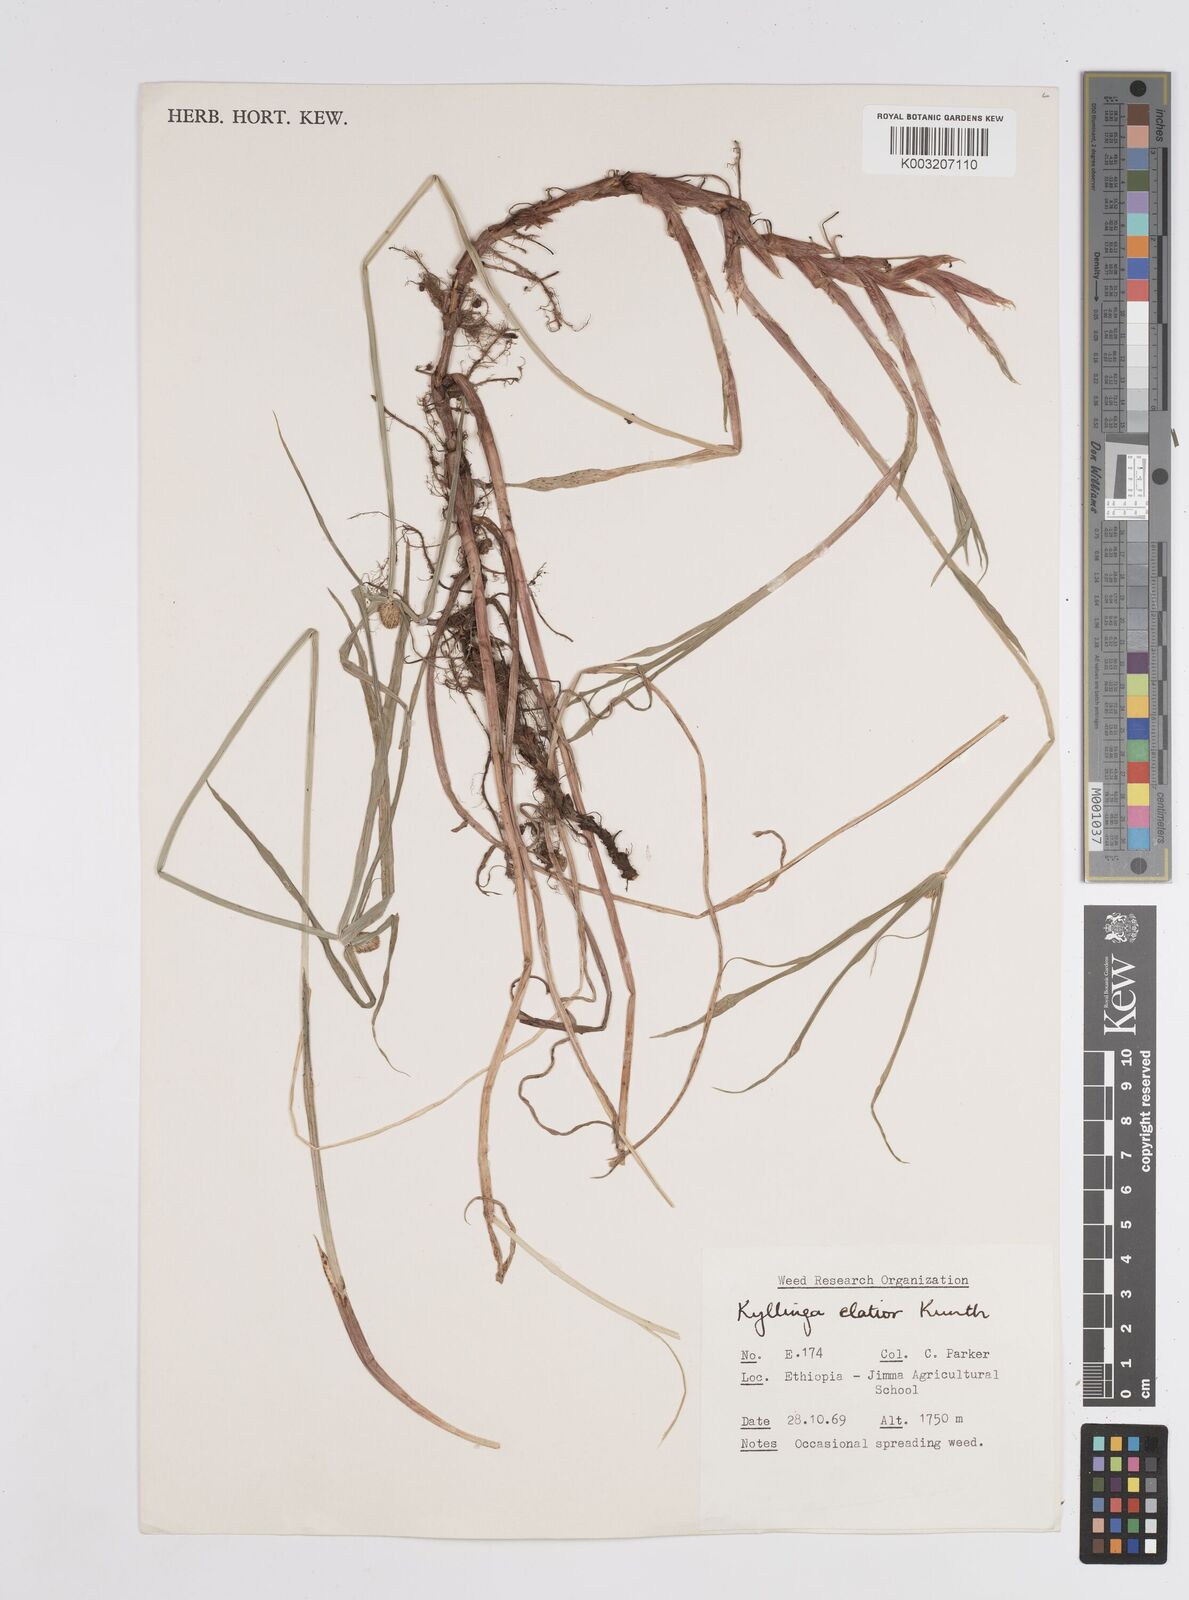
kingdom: Plantae
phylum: Tracheophyta
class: Liliopsida
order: Poales
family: Cyperaceae
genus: Cyperus
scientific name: Cyperus
